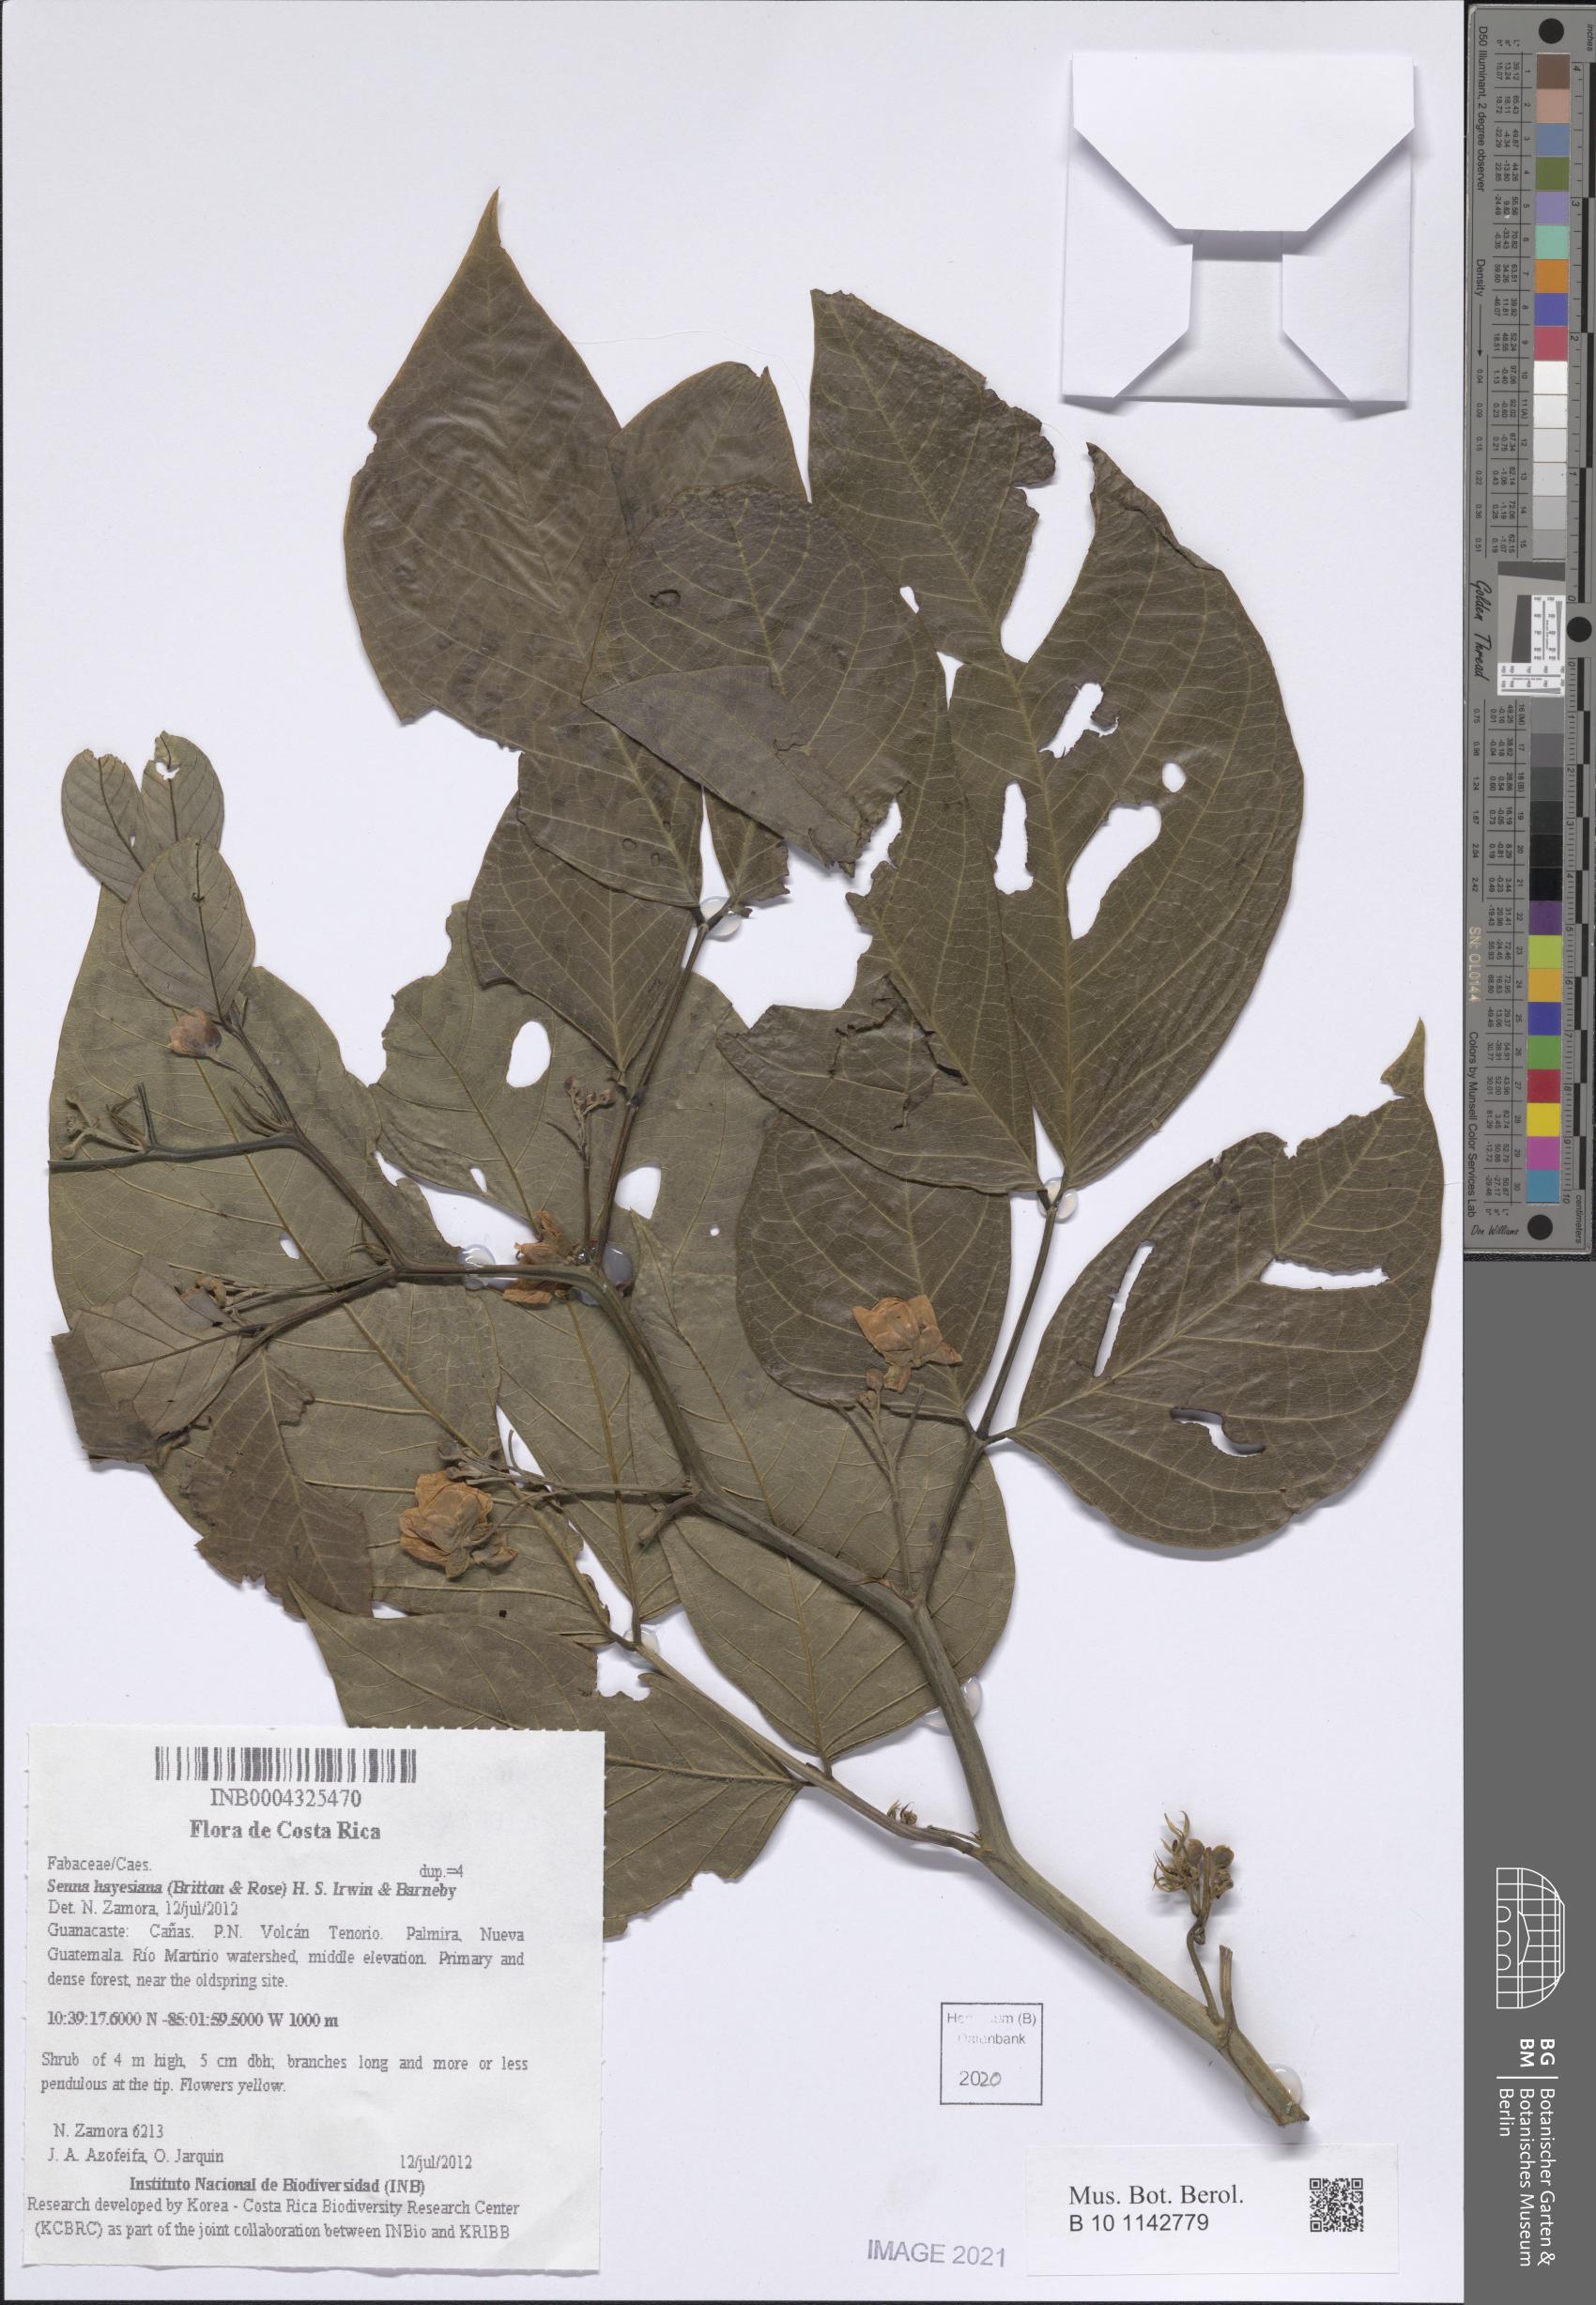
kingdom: Plantae
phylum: Tracheophyta
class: Magnoliopsida
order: Fabales
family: Fabaceae
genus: Senna
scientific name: Senna hayesiana
